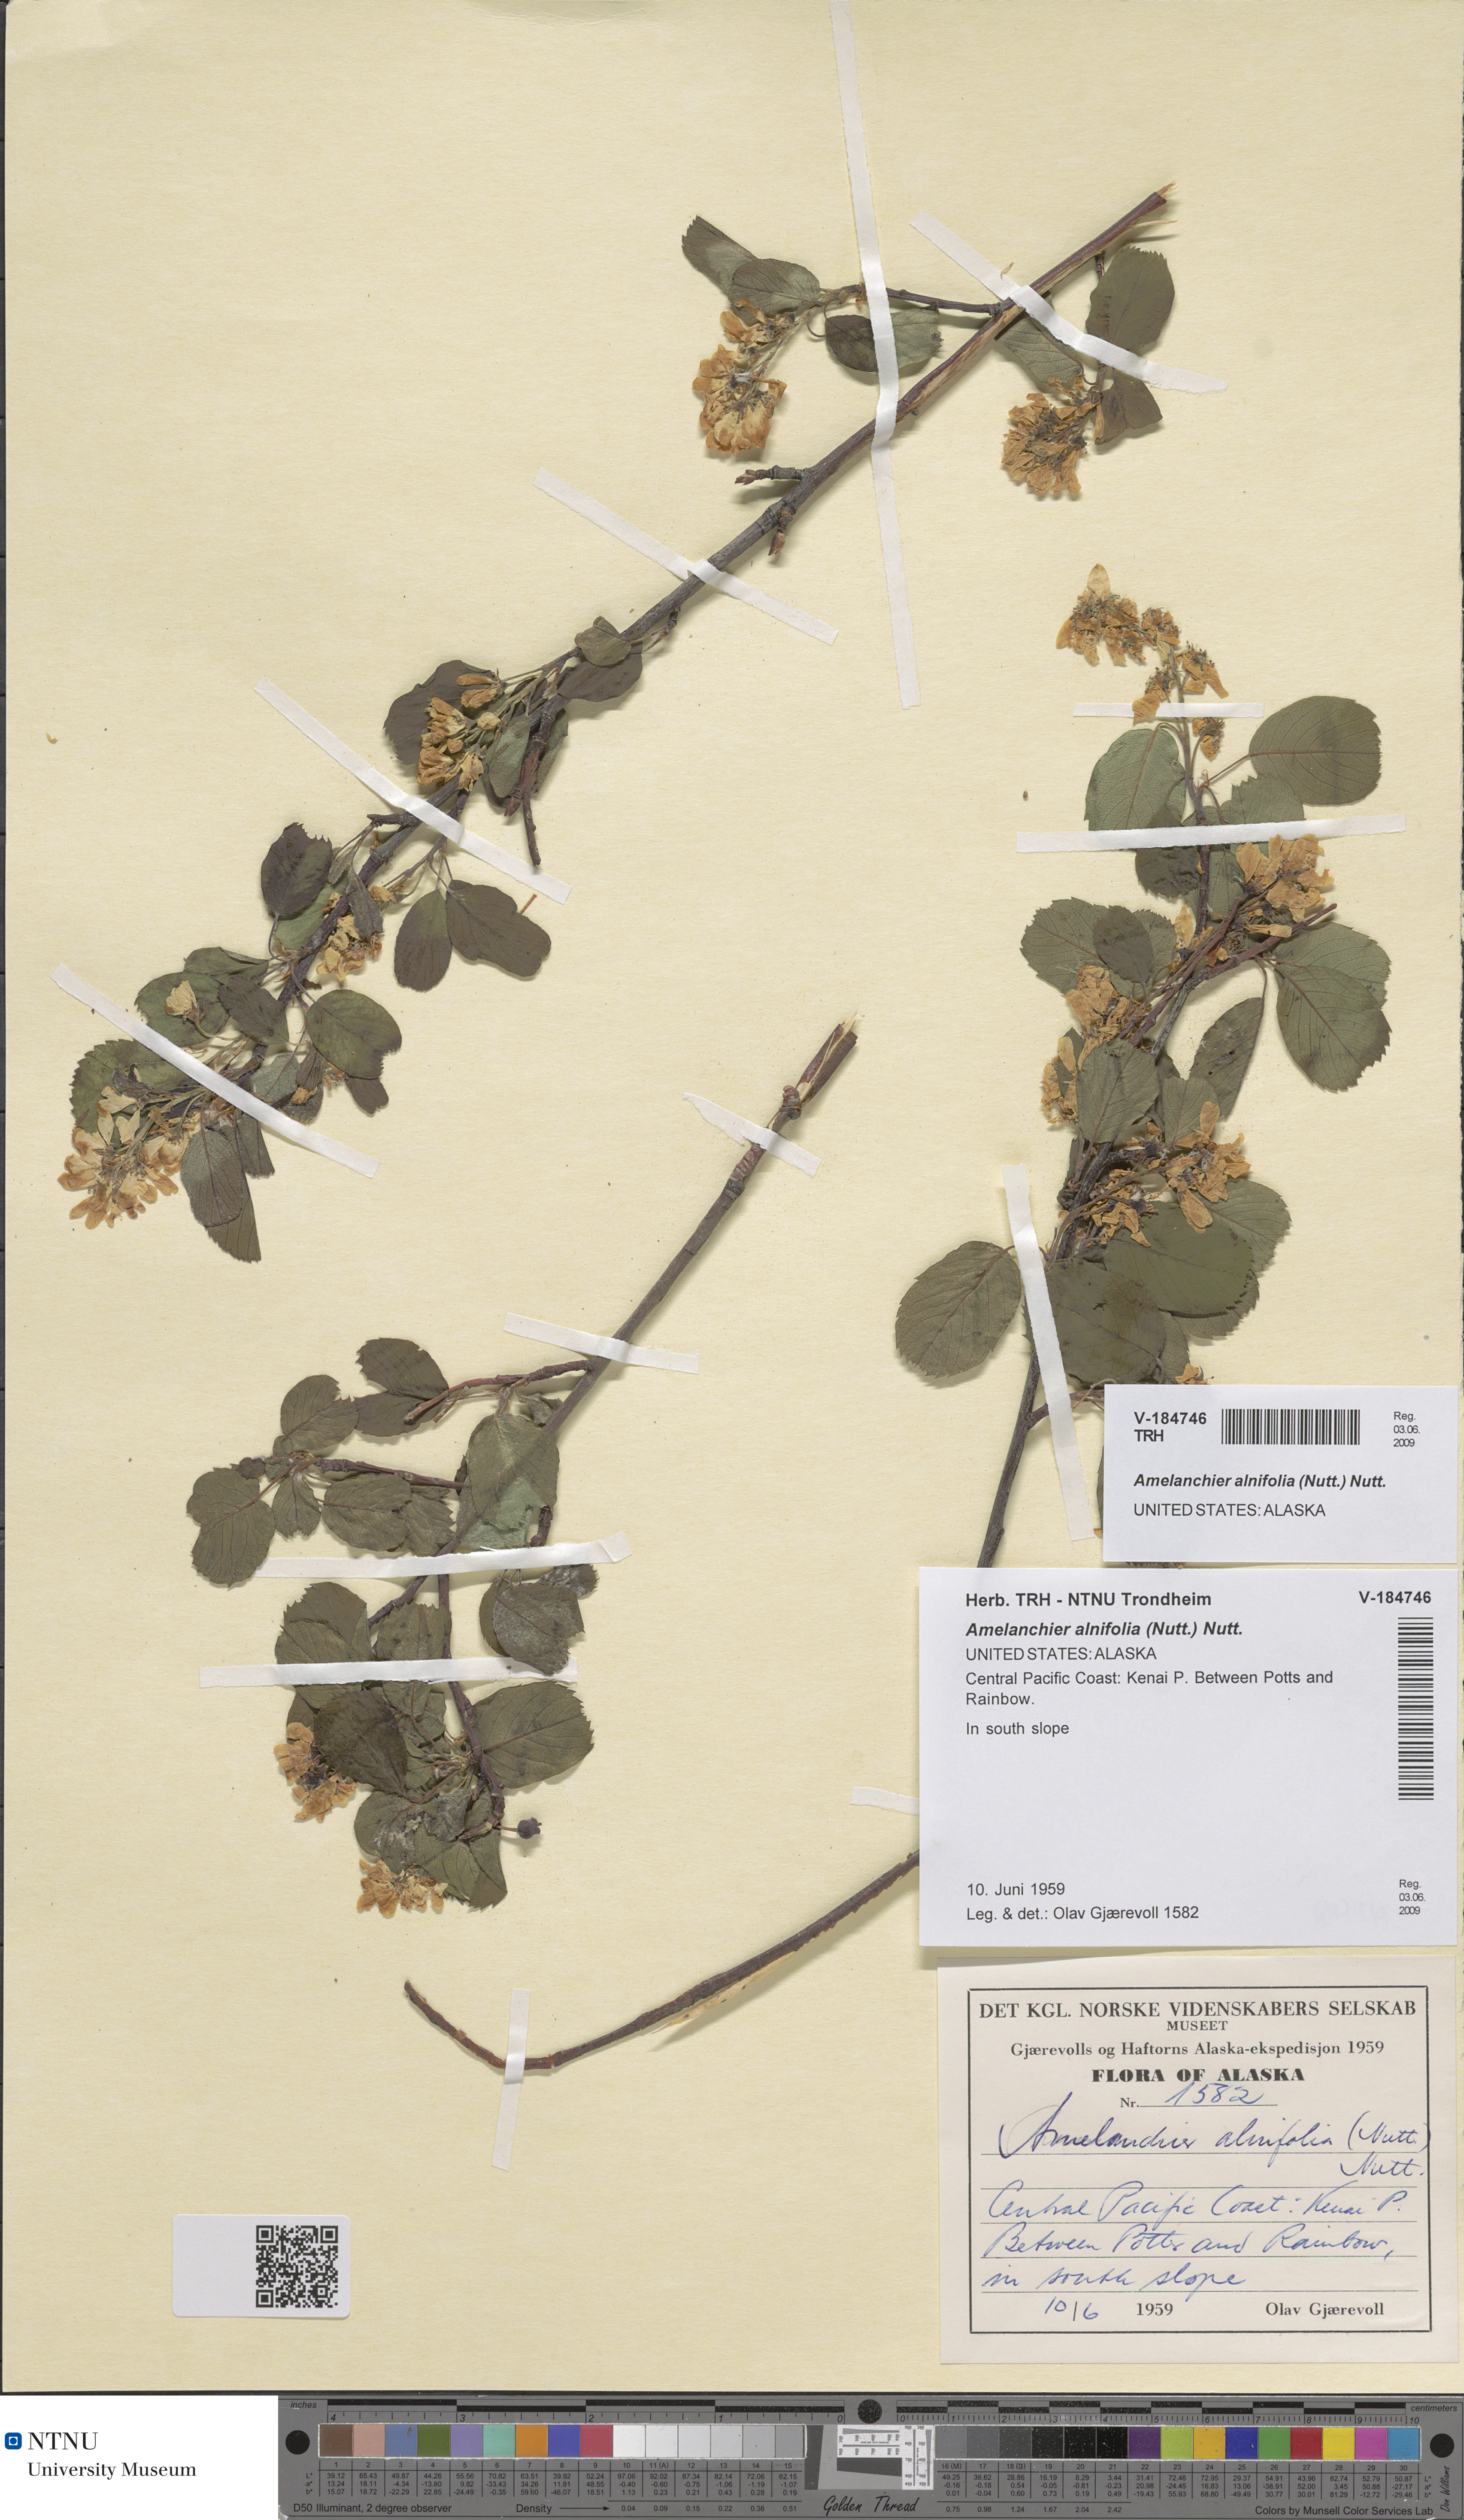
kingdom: Plantae
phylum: Tracheophyta
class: Magnoliopsida
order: Rosales
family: Rosaceae
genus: Amelanchier
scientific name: Amelanchier alnifolia
